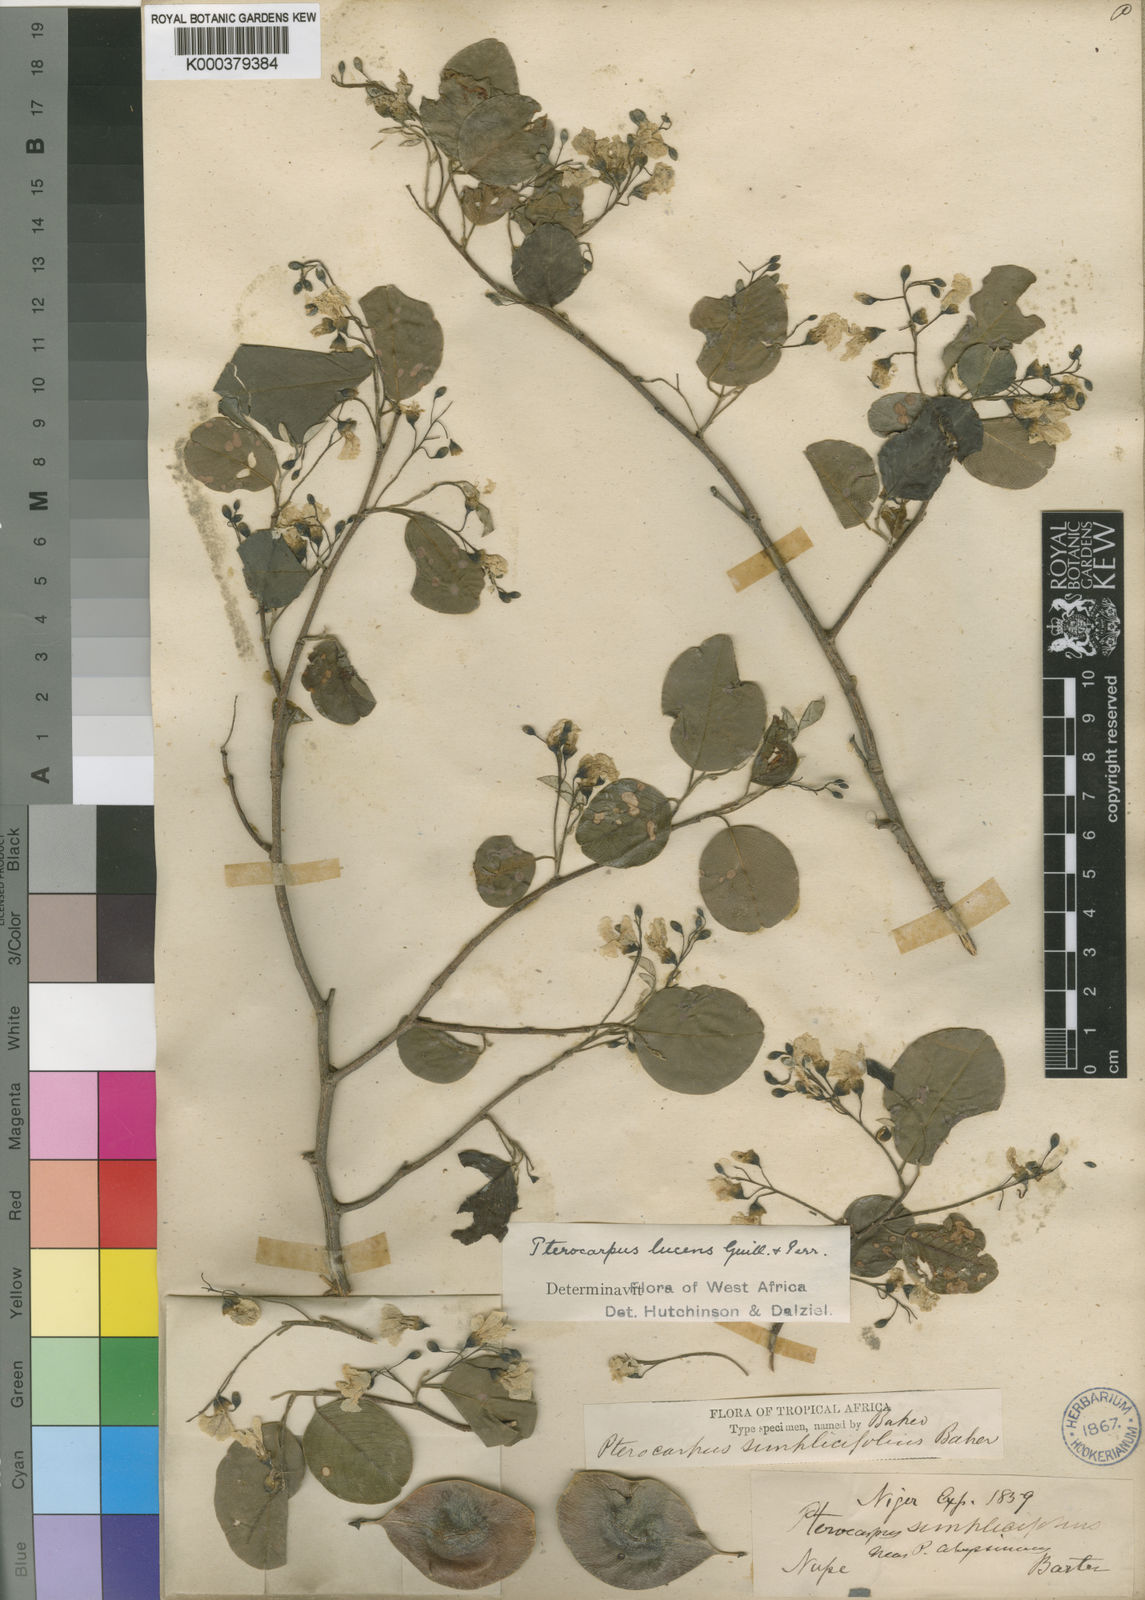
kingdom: Plantae
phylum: Tracheophyta
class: Magnoliopsida
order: Fabales
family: Fabaceae
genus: Pterocarpus
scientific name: Pterocarpus lucens
